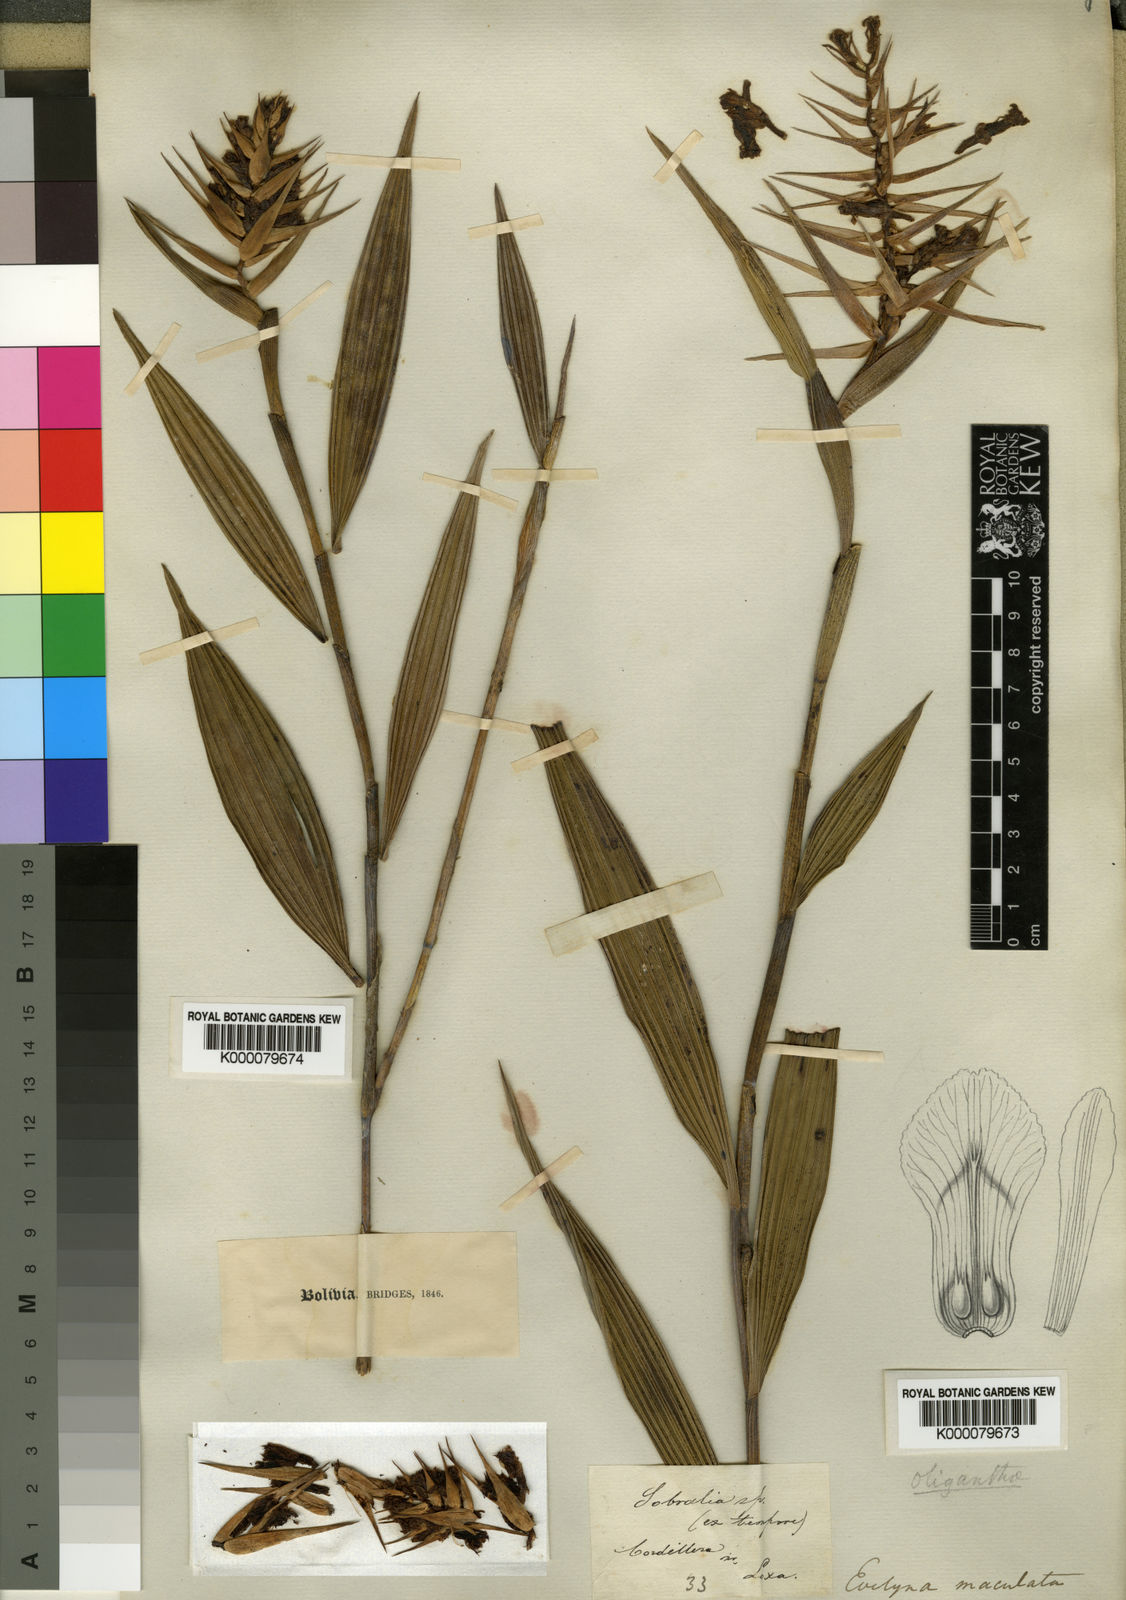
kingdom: Plantae
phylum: Tracheophyta
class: Liliopsida
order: Asparagales
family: Orchidaceae
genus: Elleanthus
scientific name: Elleanthus maculatus
